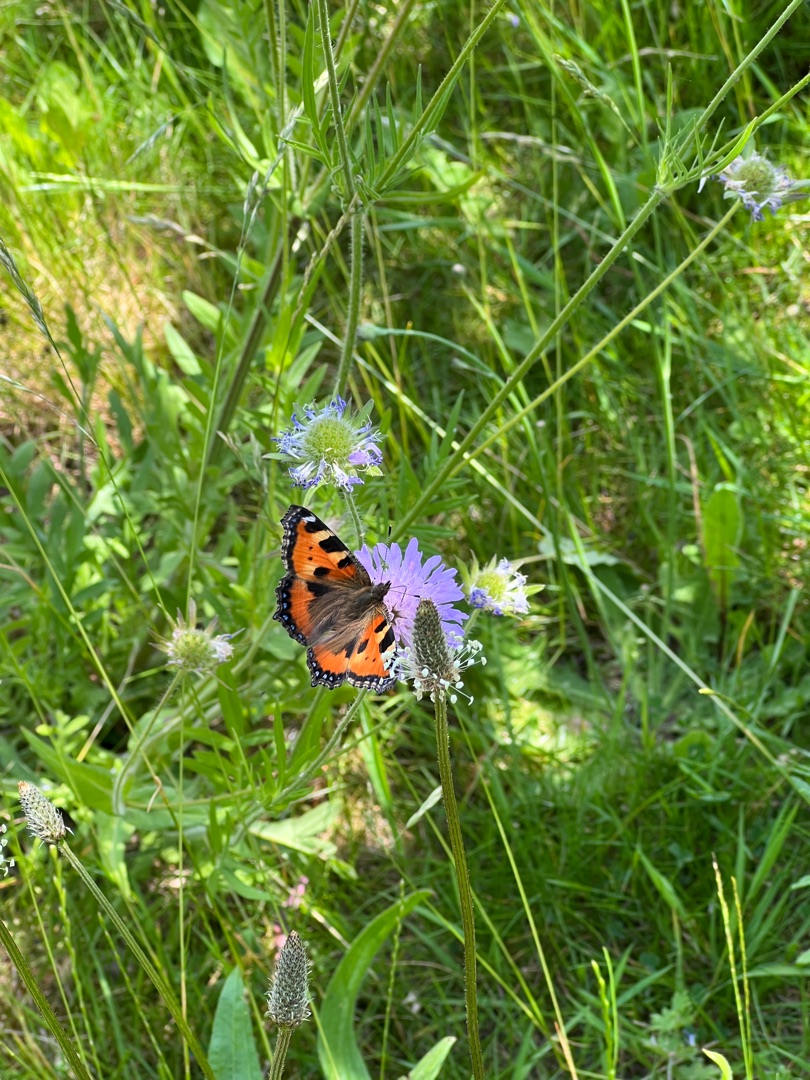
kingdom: Animalia
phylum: Arthropoda
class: Insecta
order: Lepidoptera
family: Nymphalidae
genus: Aglais
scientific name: Aglais urticae
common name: Nældens takvinge
